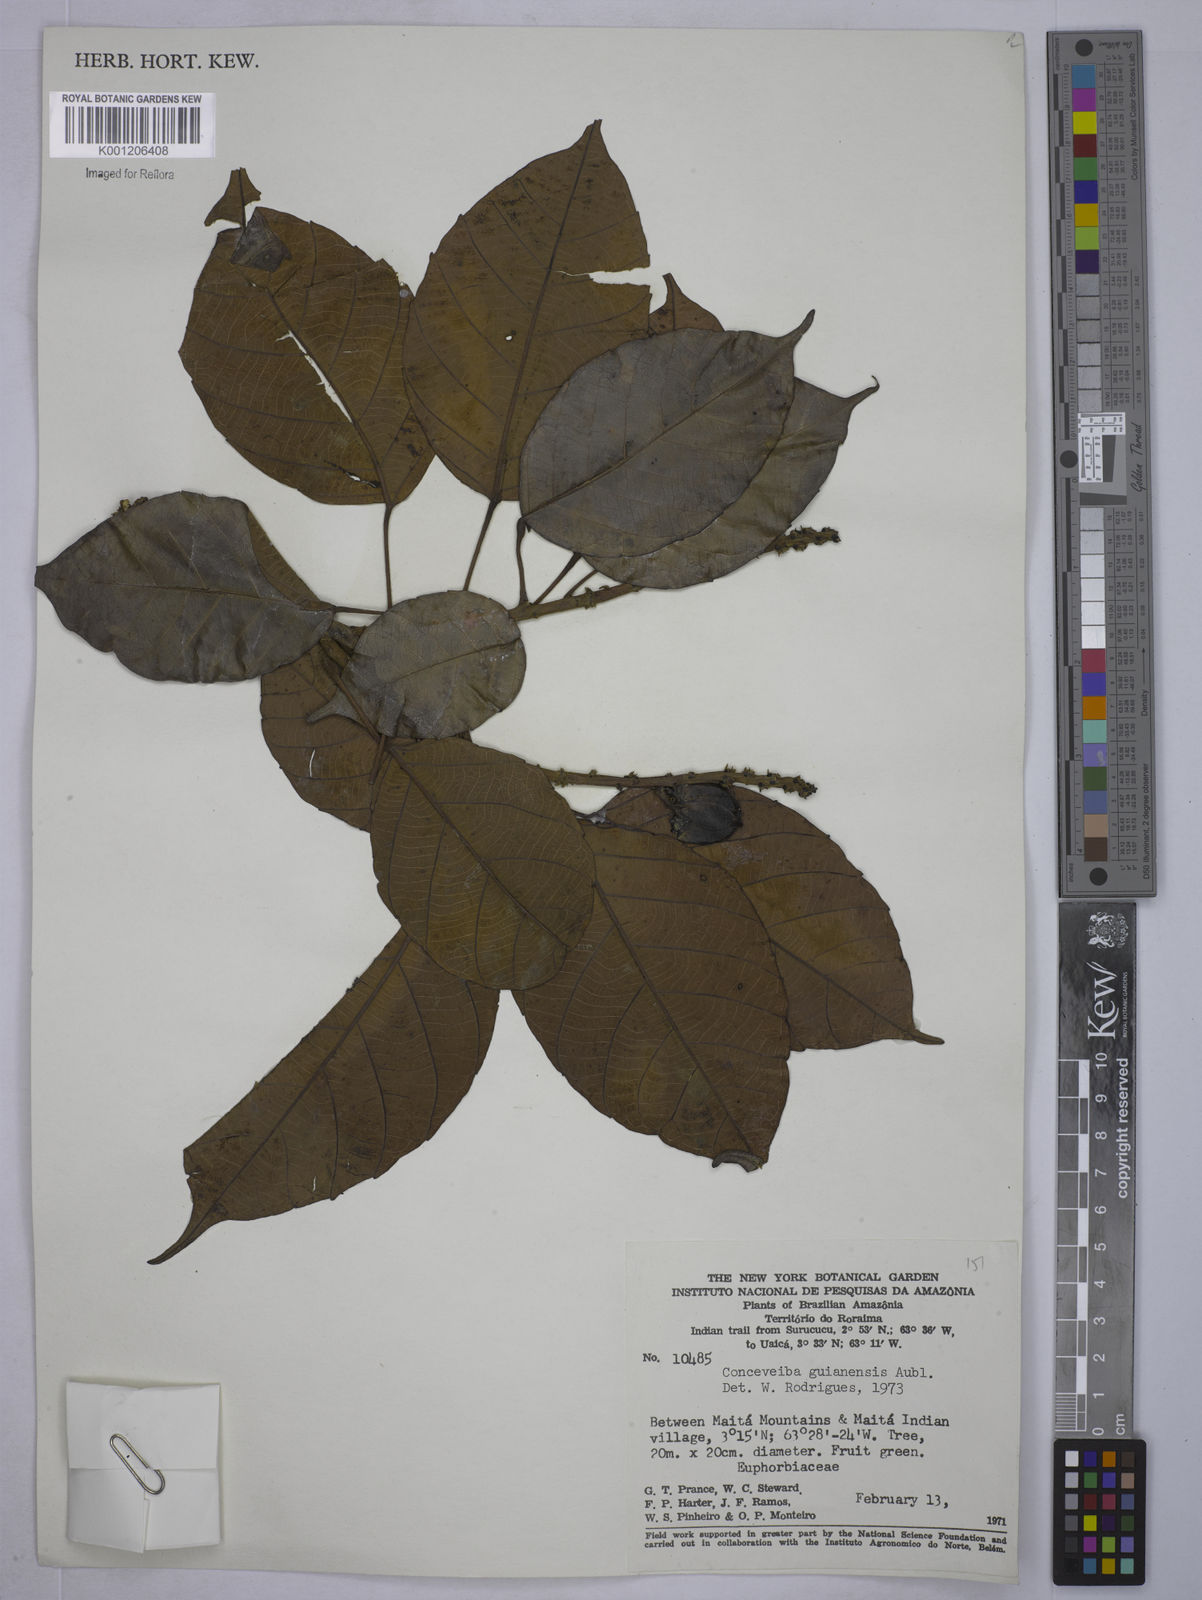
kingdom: Plantae
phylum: Tracheophyta
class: Magnoliopsida
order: Malpighiales
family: Euphorbiaceae
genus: Conceveiba
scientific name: Conceveiba guianensis
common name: Poatoru
